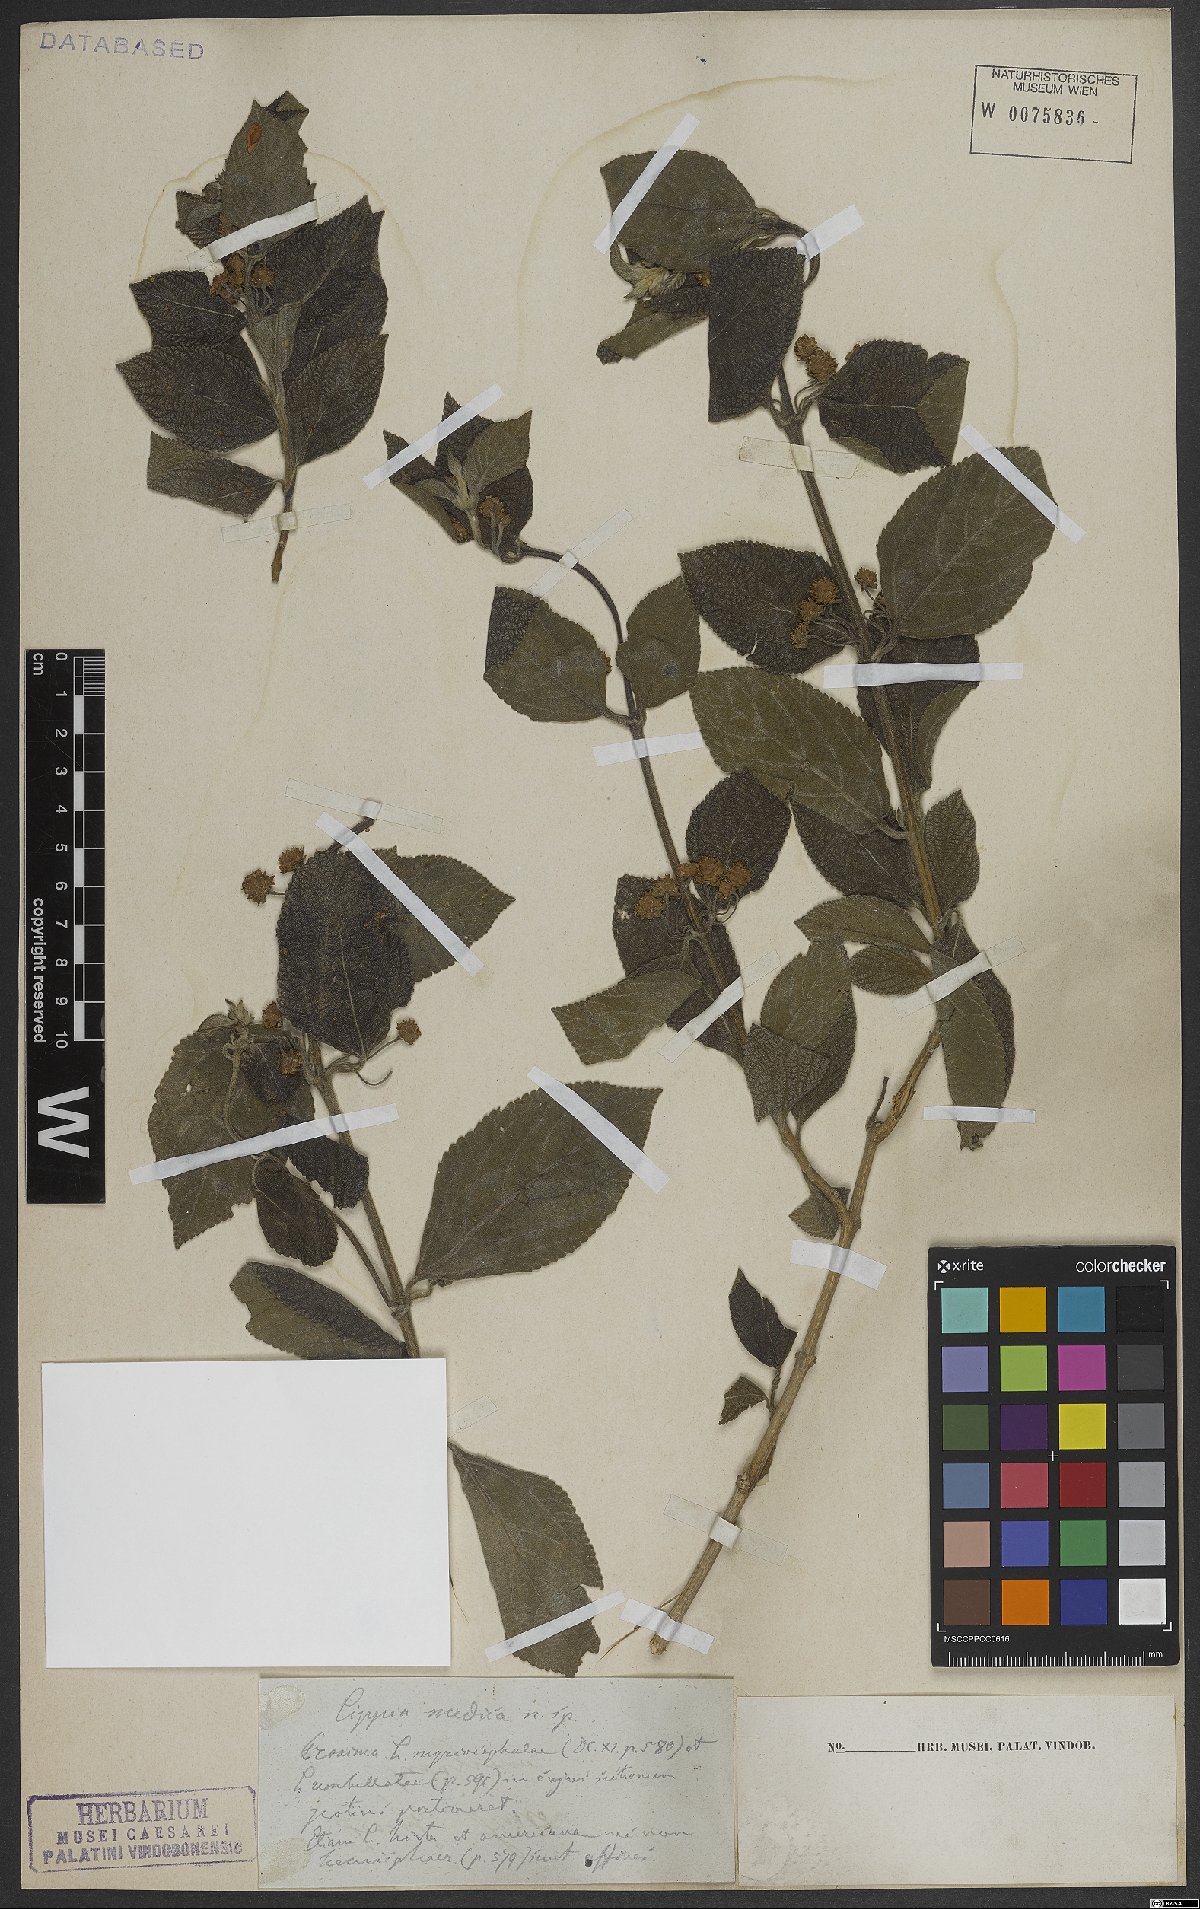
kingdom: Plantae
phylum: Tracheophyta
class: Magnoliopsida
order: Lamiales
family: Verbenaceae
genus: Lippia
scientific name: Lippia
